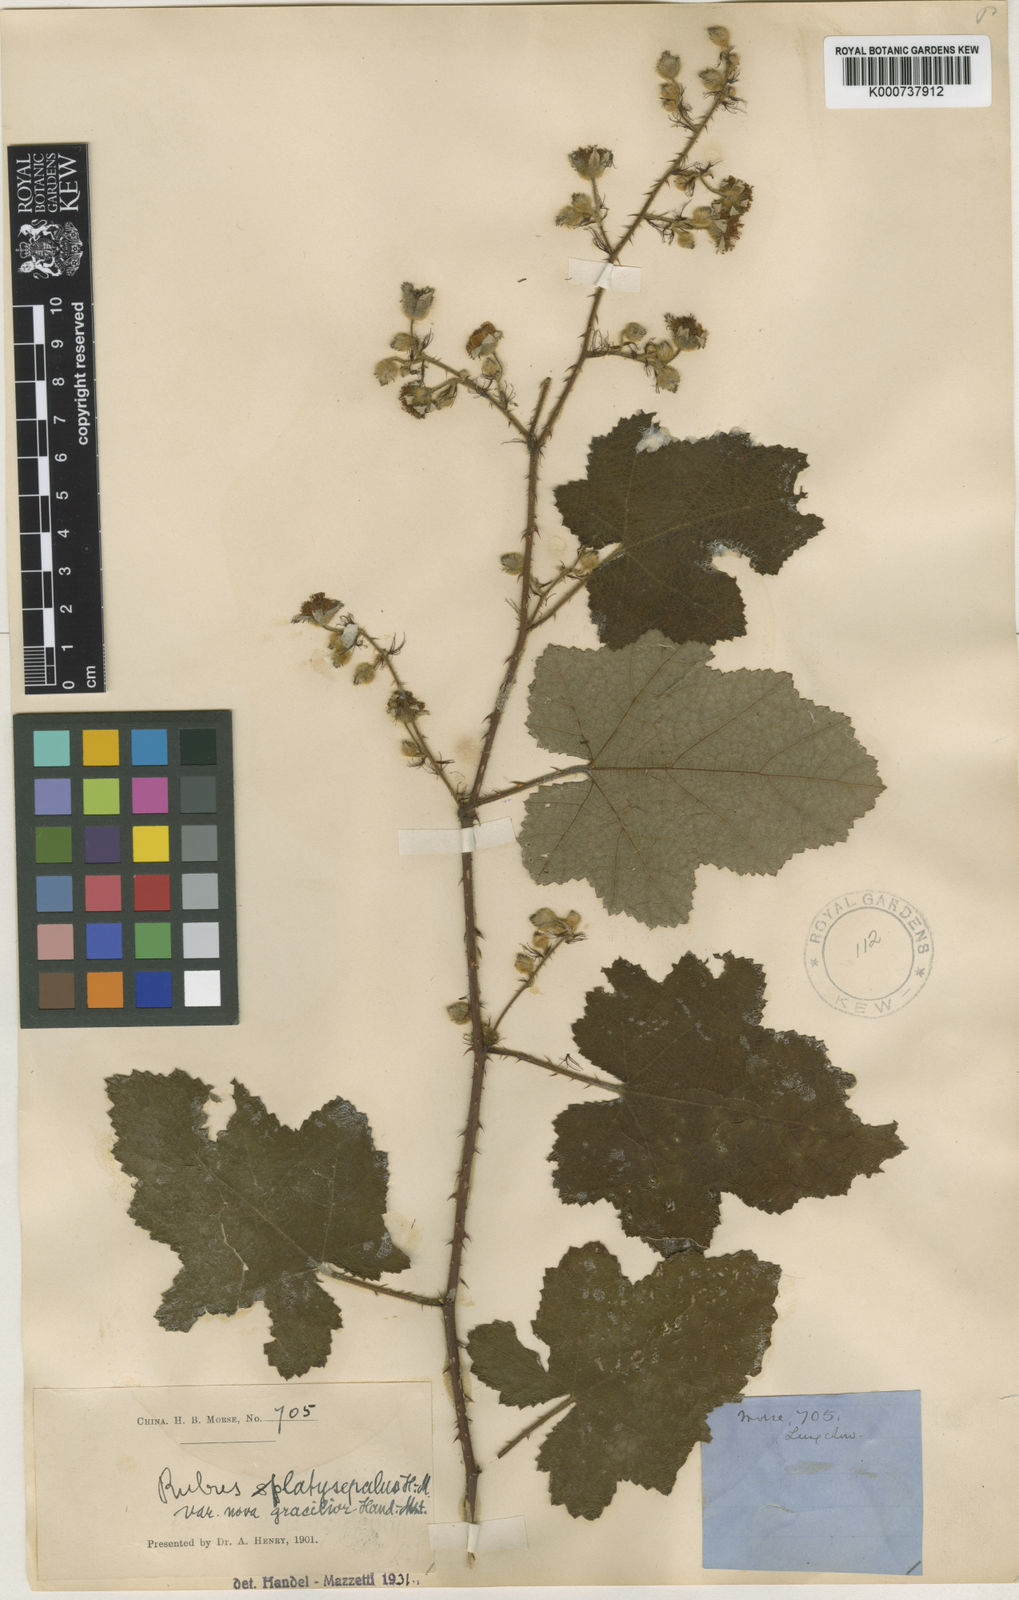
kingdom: Plantae
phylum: Tracheophyta
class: Magnoliopsida
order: Rosales
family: Rosaceae
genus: Rubus
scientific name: Rubus platysepalus
